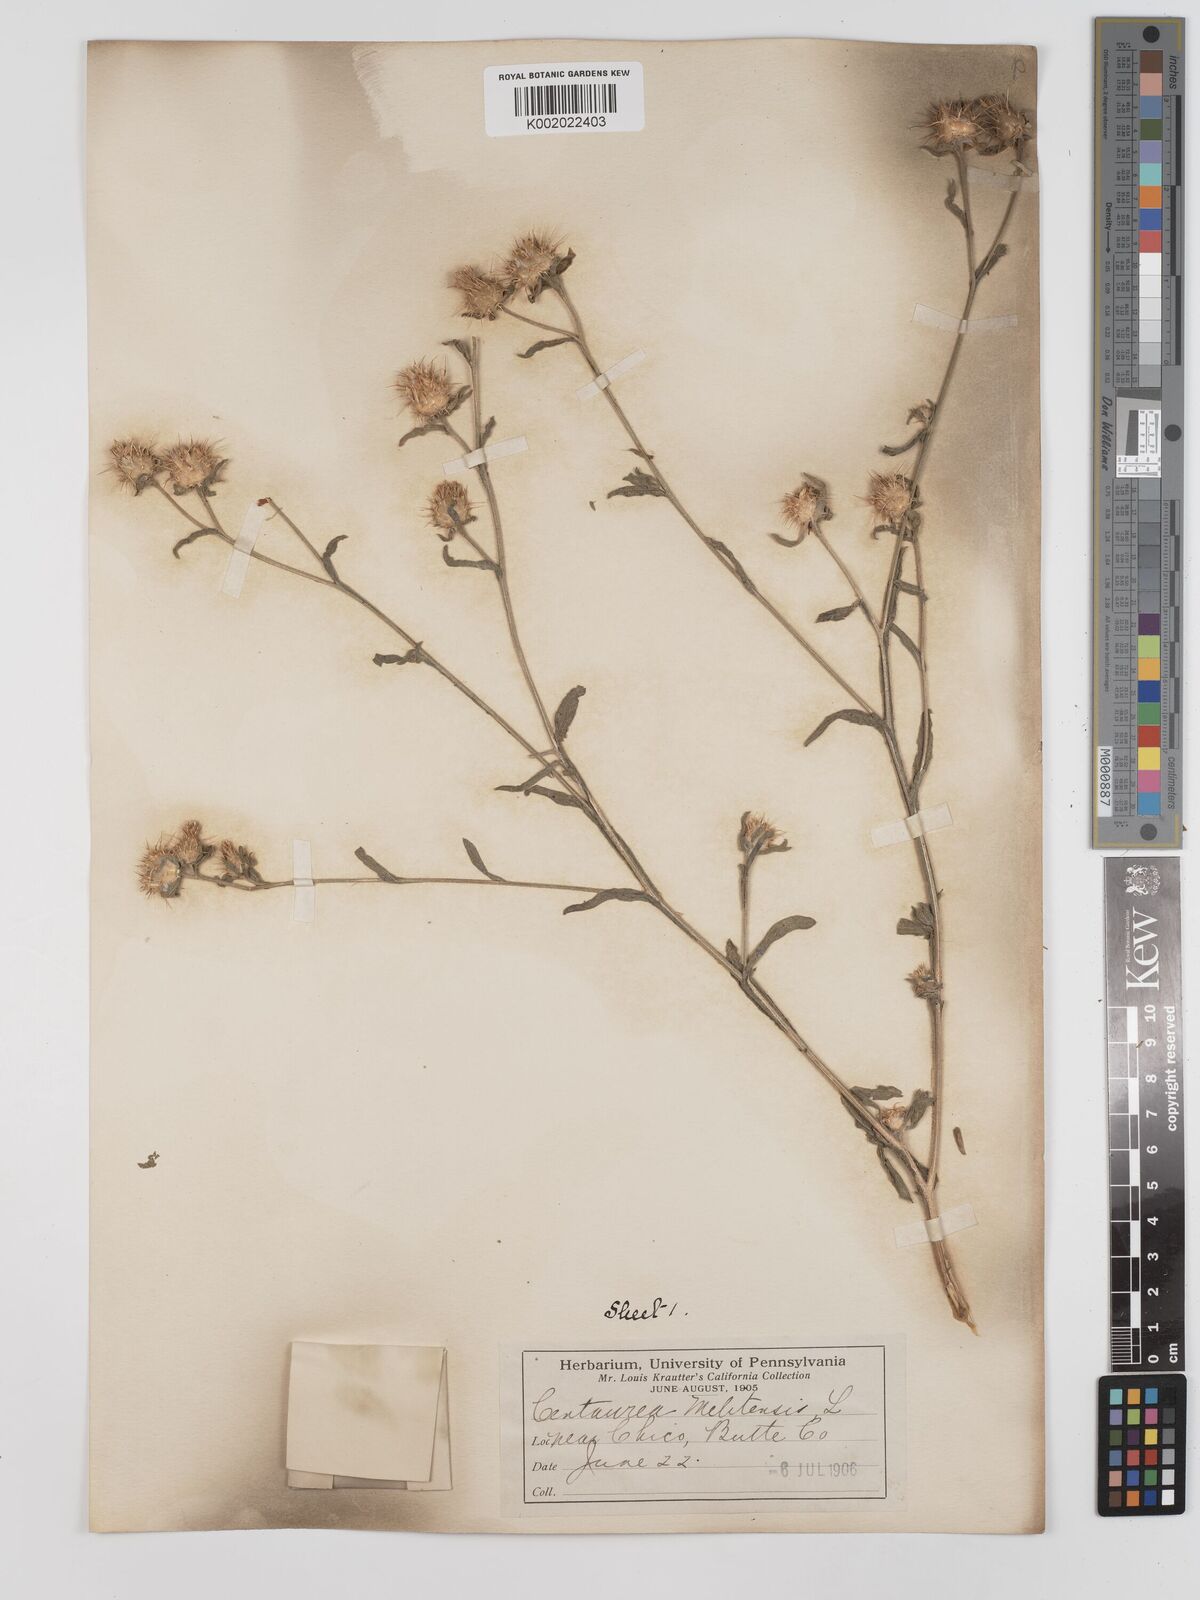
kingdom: Plantae
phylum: Tracheophyta
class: Magnoliopsida
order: Asterales
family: Asteraceae
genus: Centaurea
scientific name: Centaurea melitensis
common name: Maltese star-thistle
